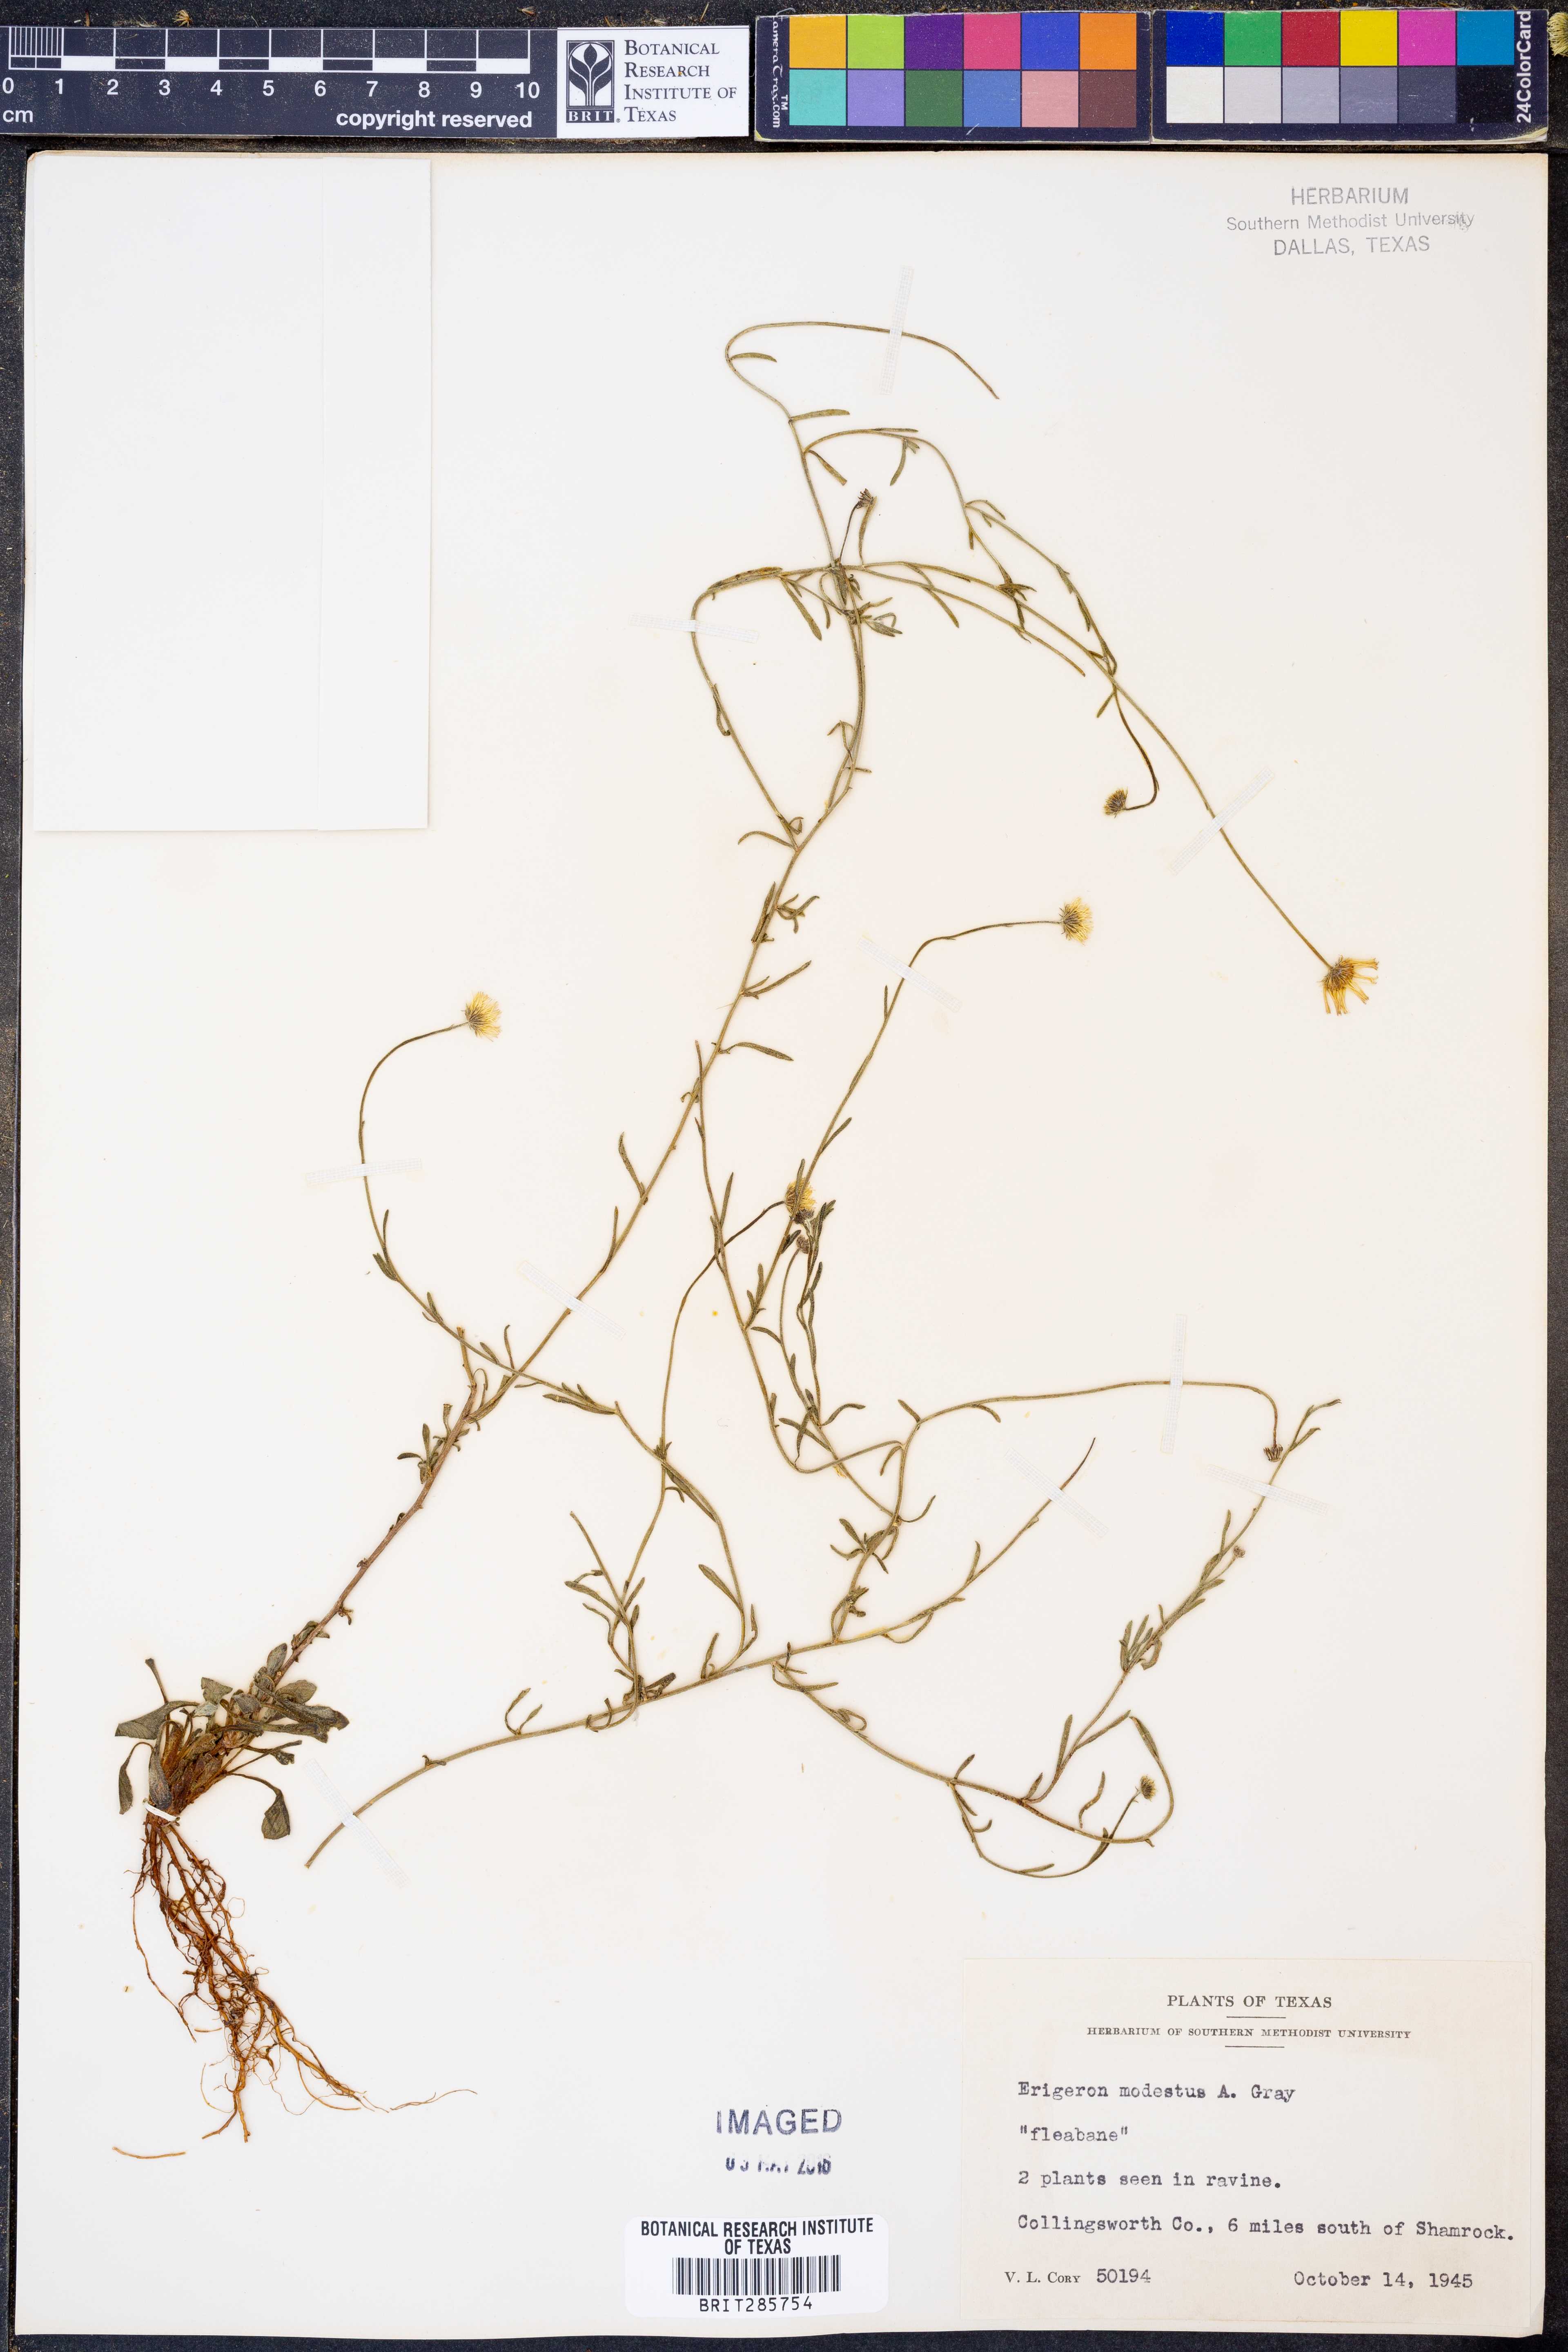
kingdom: Plantae
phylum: Tracheophyta
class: Magnoliopsida
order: Asterales
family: Asteraceae
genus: Erigeron
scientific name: Erigeron modestus
